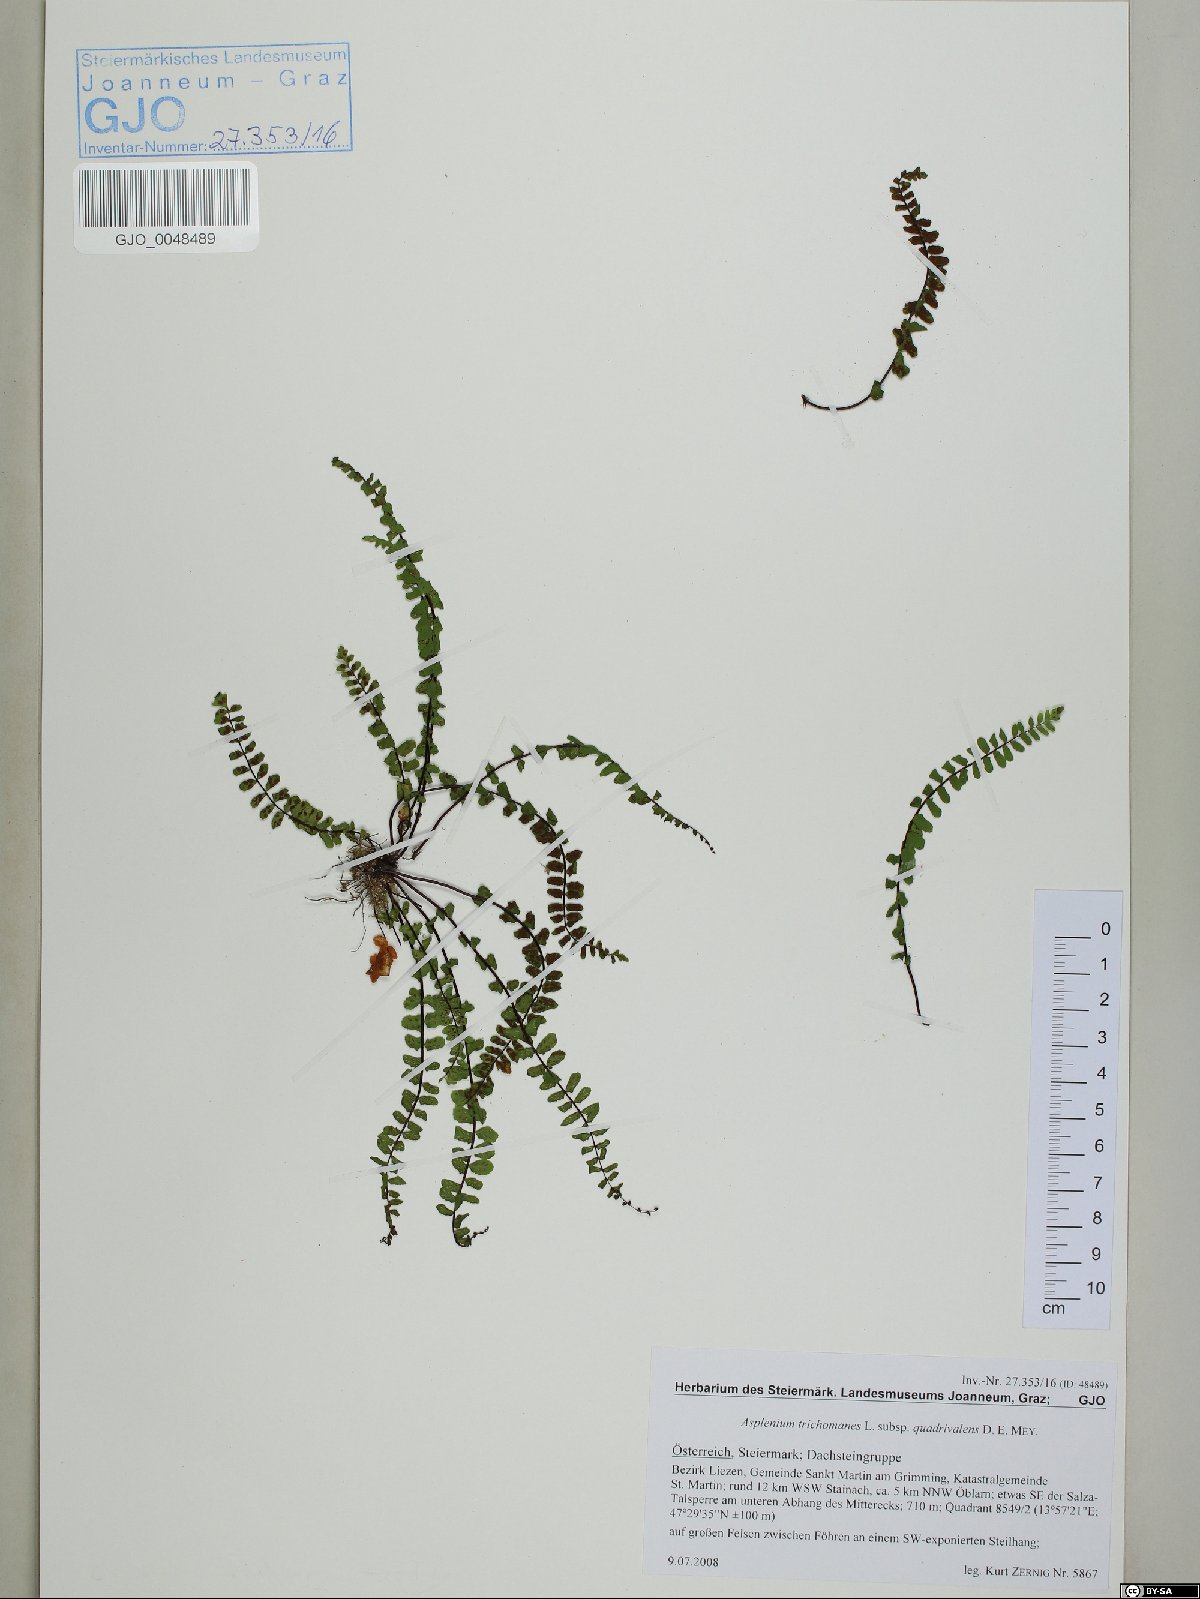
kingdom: Plantae
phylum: Tracheophyta
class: Polypodiopsida
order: Polypodiales
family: Aspleniaceae
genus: Asplenium
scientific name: Asplenium quadrivalens
